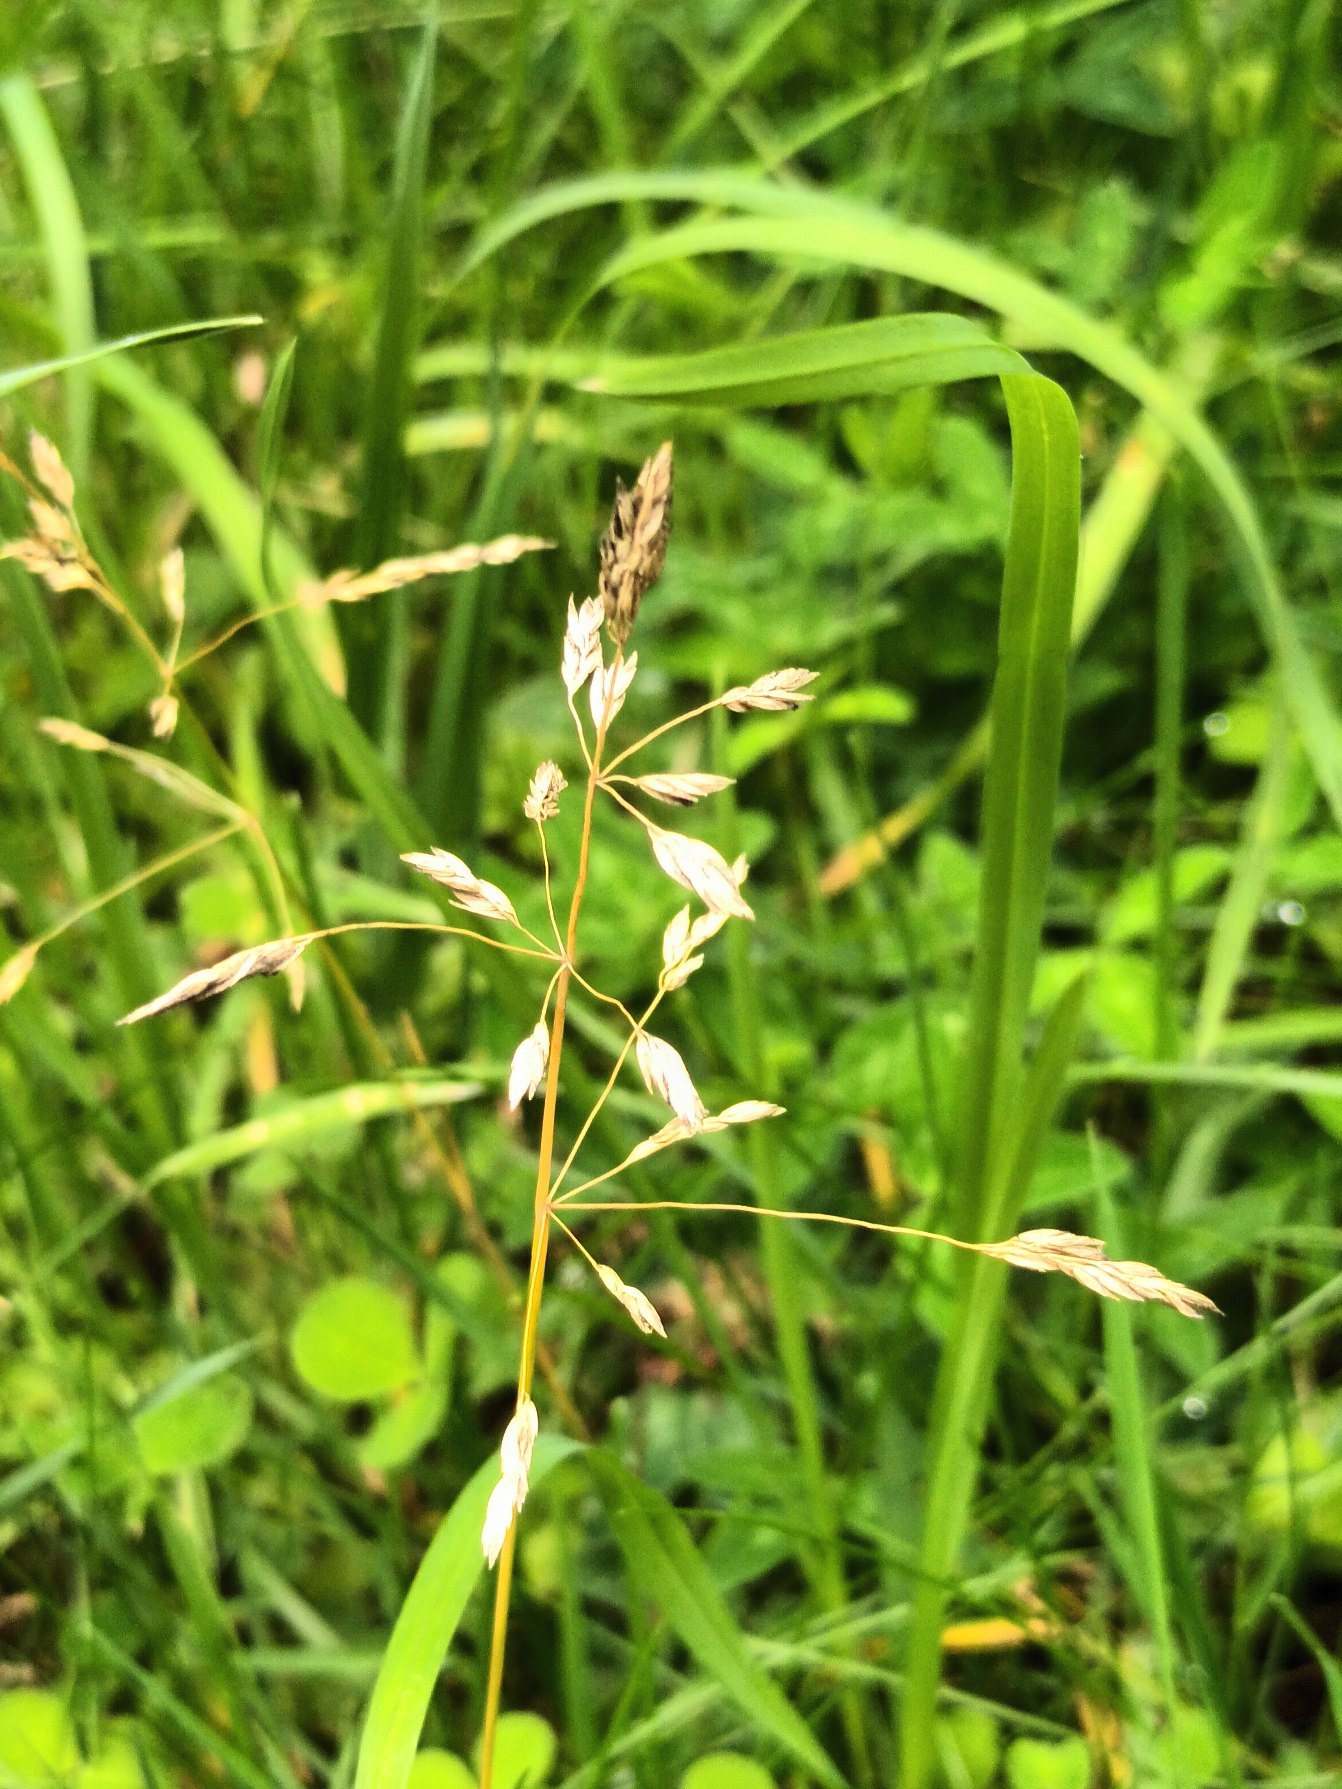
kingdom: Plantae
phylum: Tracheophyta
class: Liliopsida
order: Poales
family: Poaceae
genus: Poa
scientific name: Poa pratensis
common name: Eng-rapgræs
